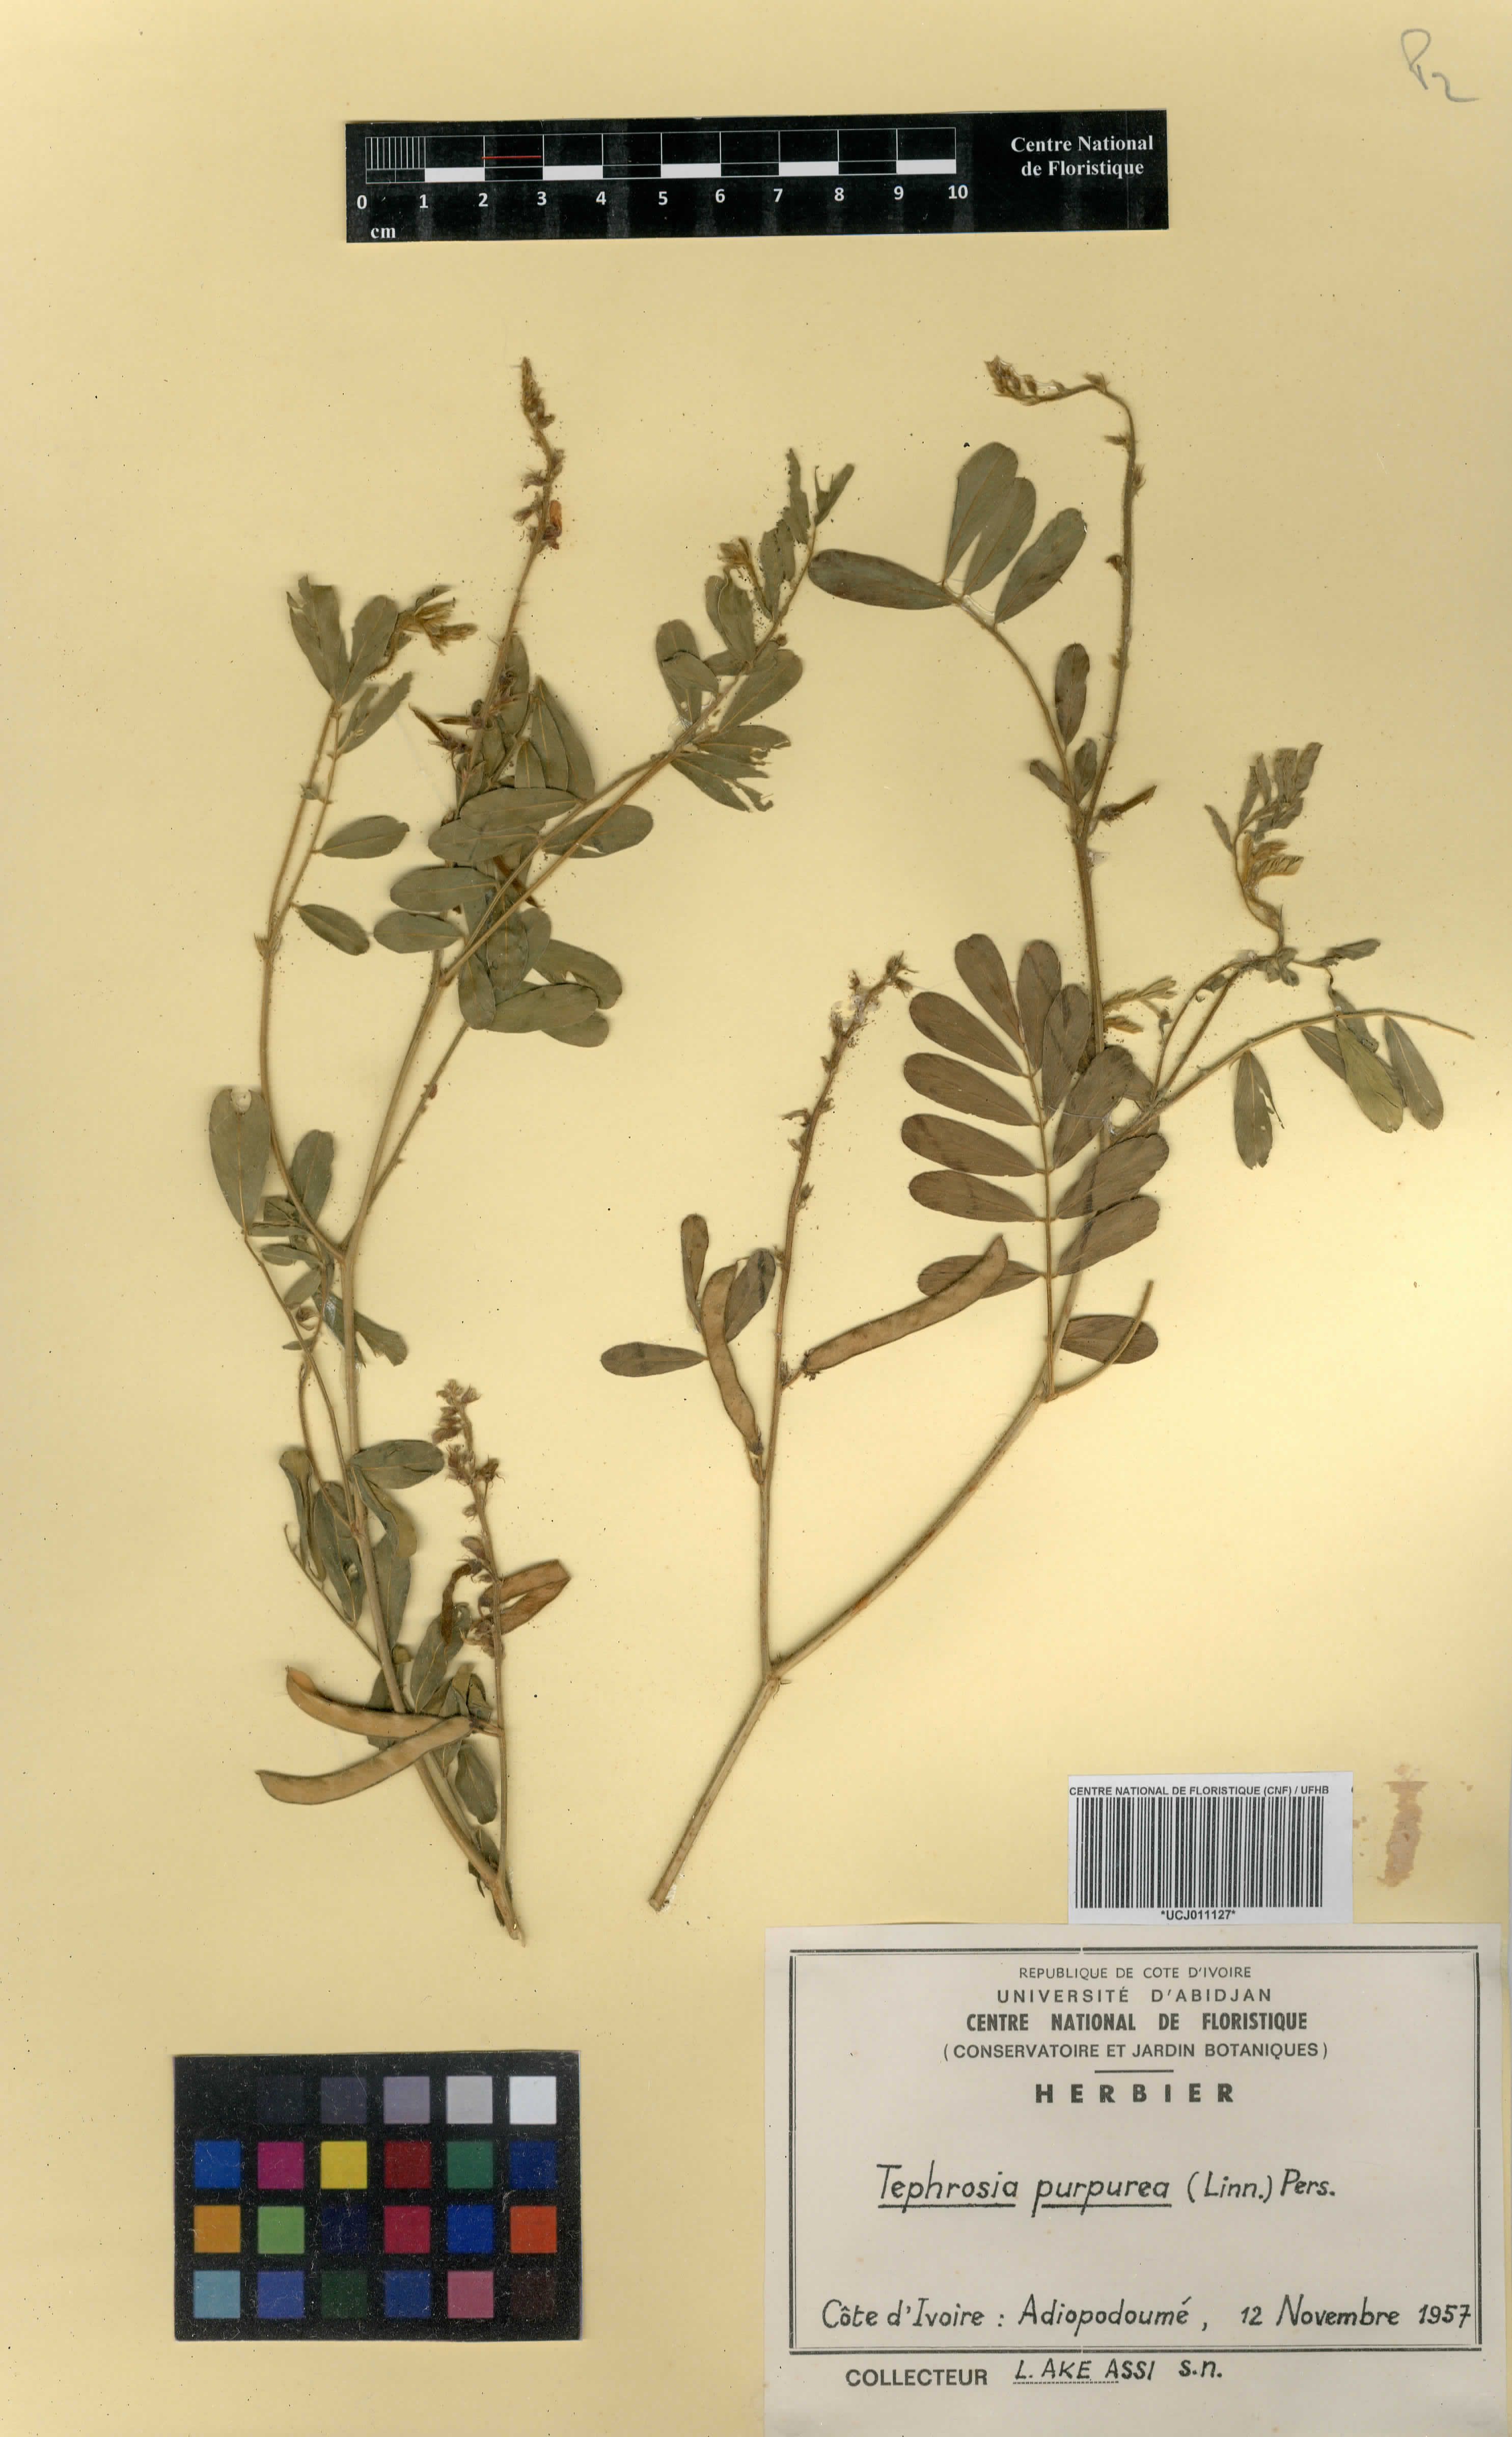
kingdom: Plantae
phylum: Tracheophyta
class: Magnoliopsida
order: Fabales
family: Fabaceae
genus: Tephrosia
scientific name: Tephrosia purpurea
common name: Fishpoison
